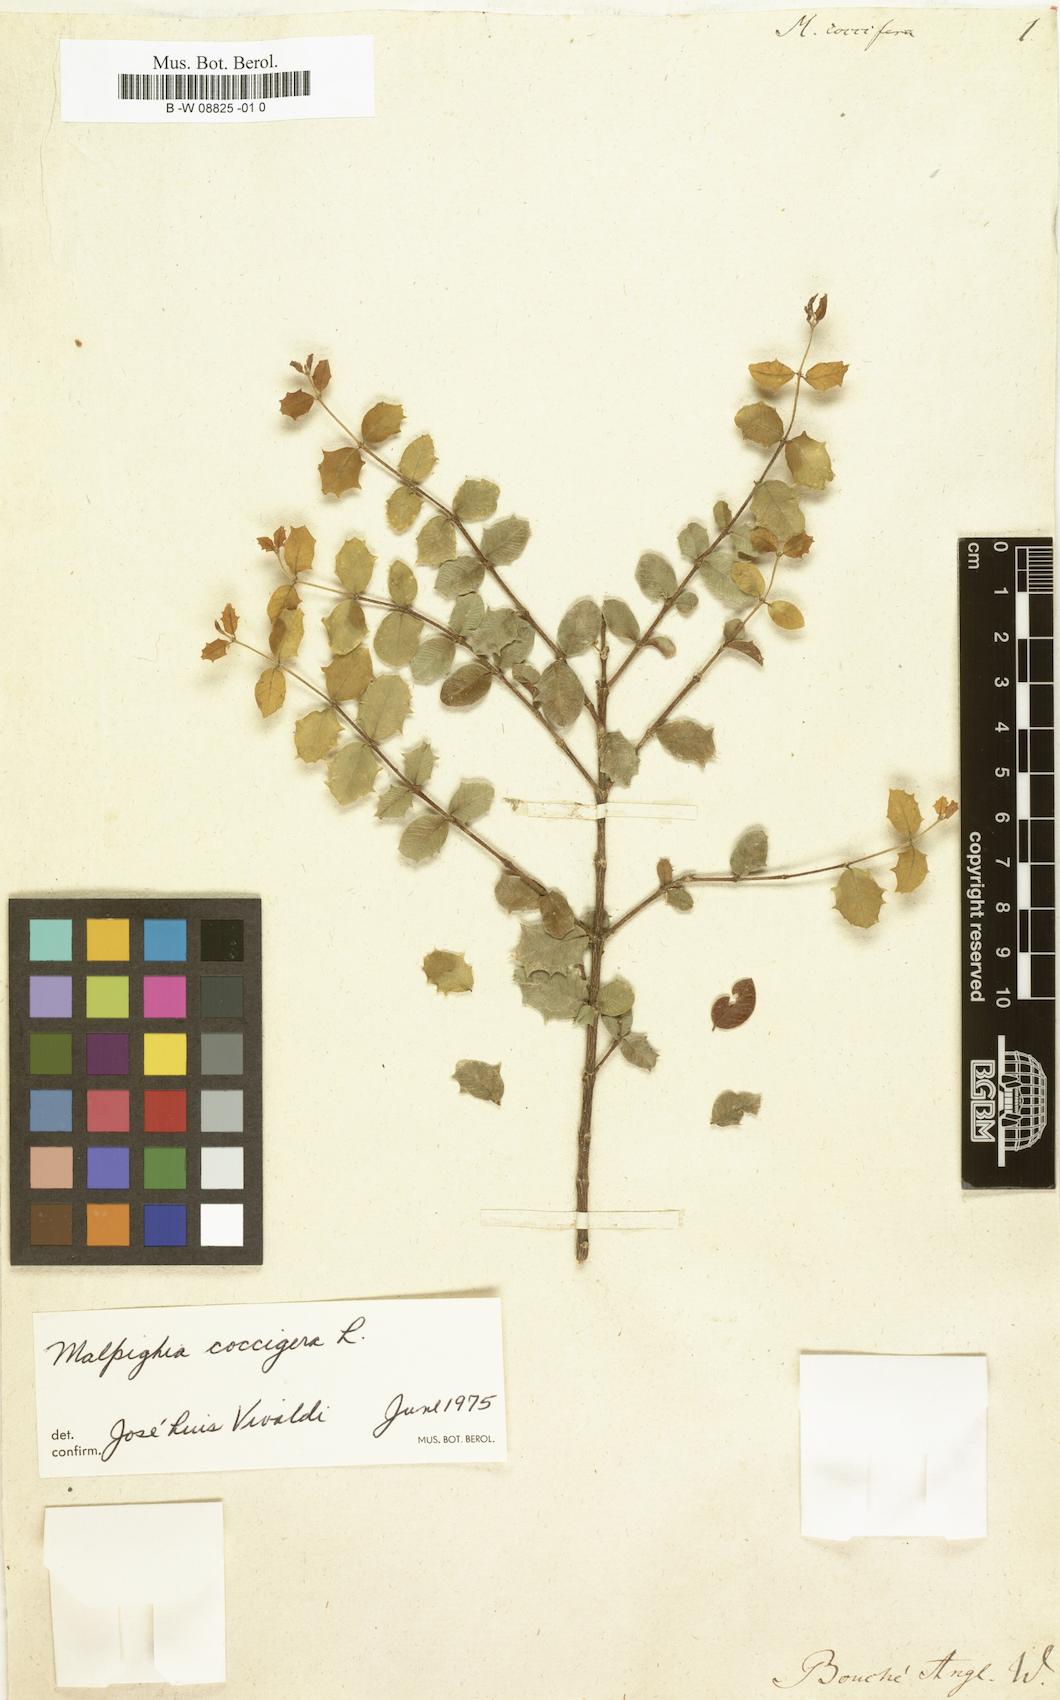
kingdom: Plantae
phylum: Tracheophyta
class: Magnoliopsida
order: Malpighiales
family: Malpighiaceae
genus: Malpighia
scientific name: Malpighia coccifera
